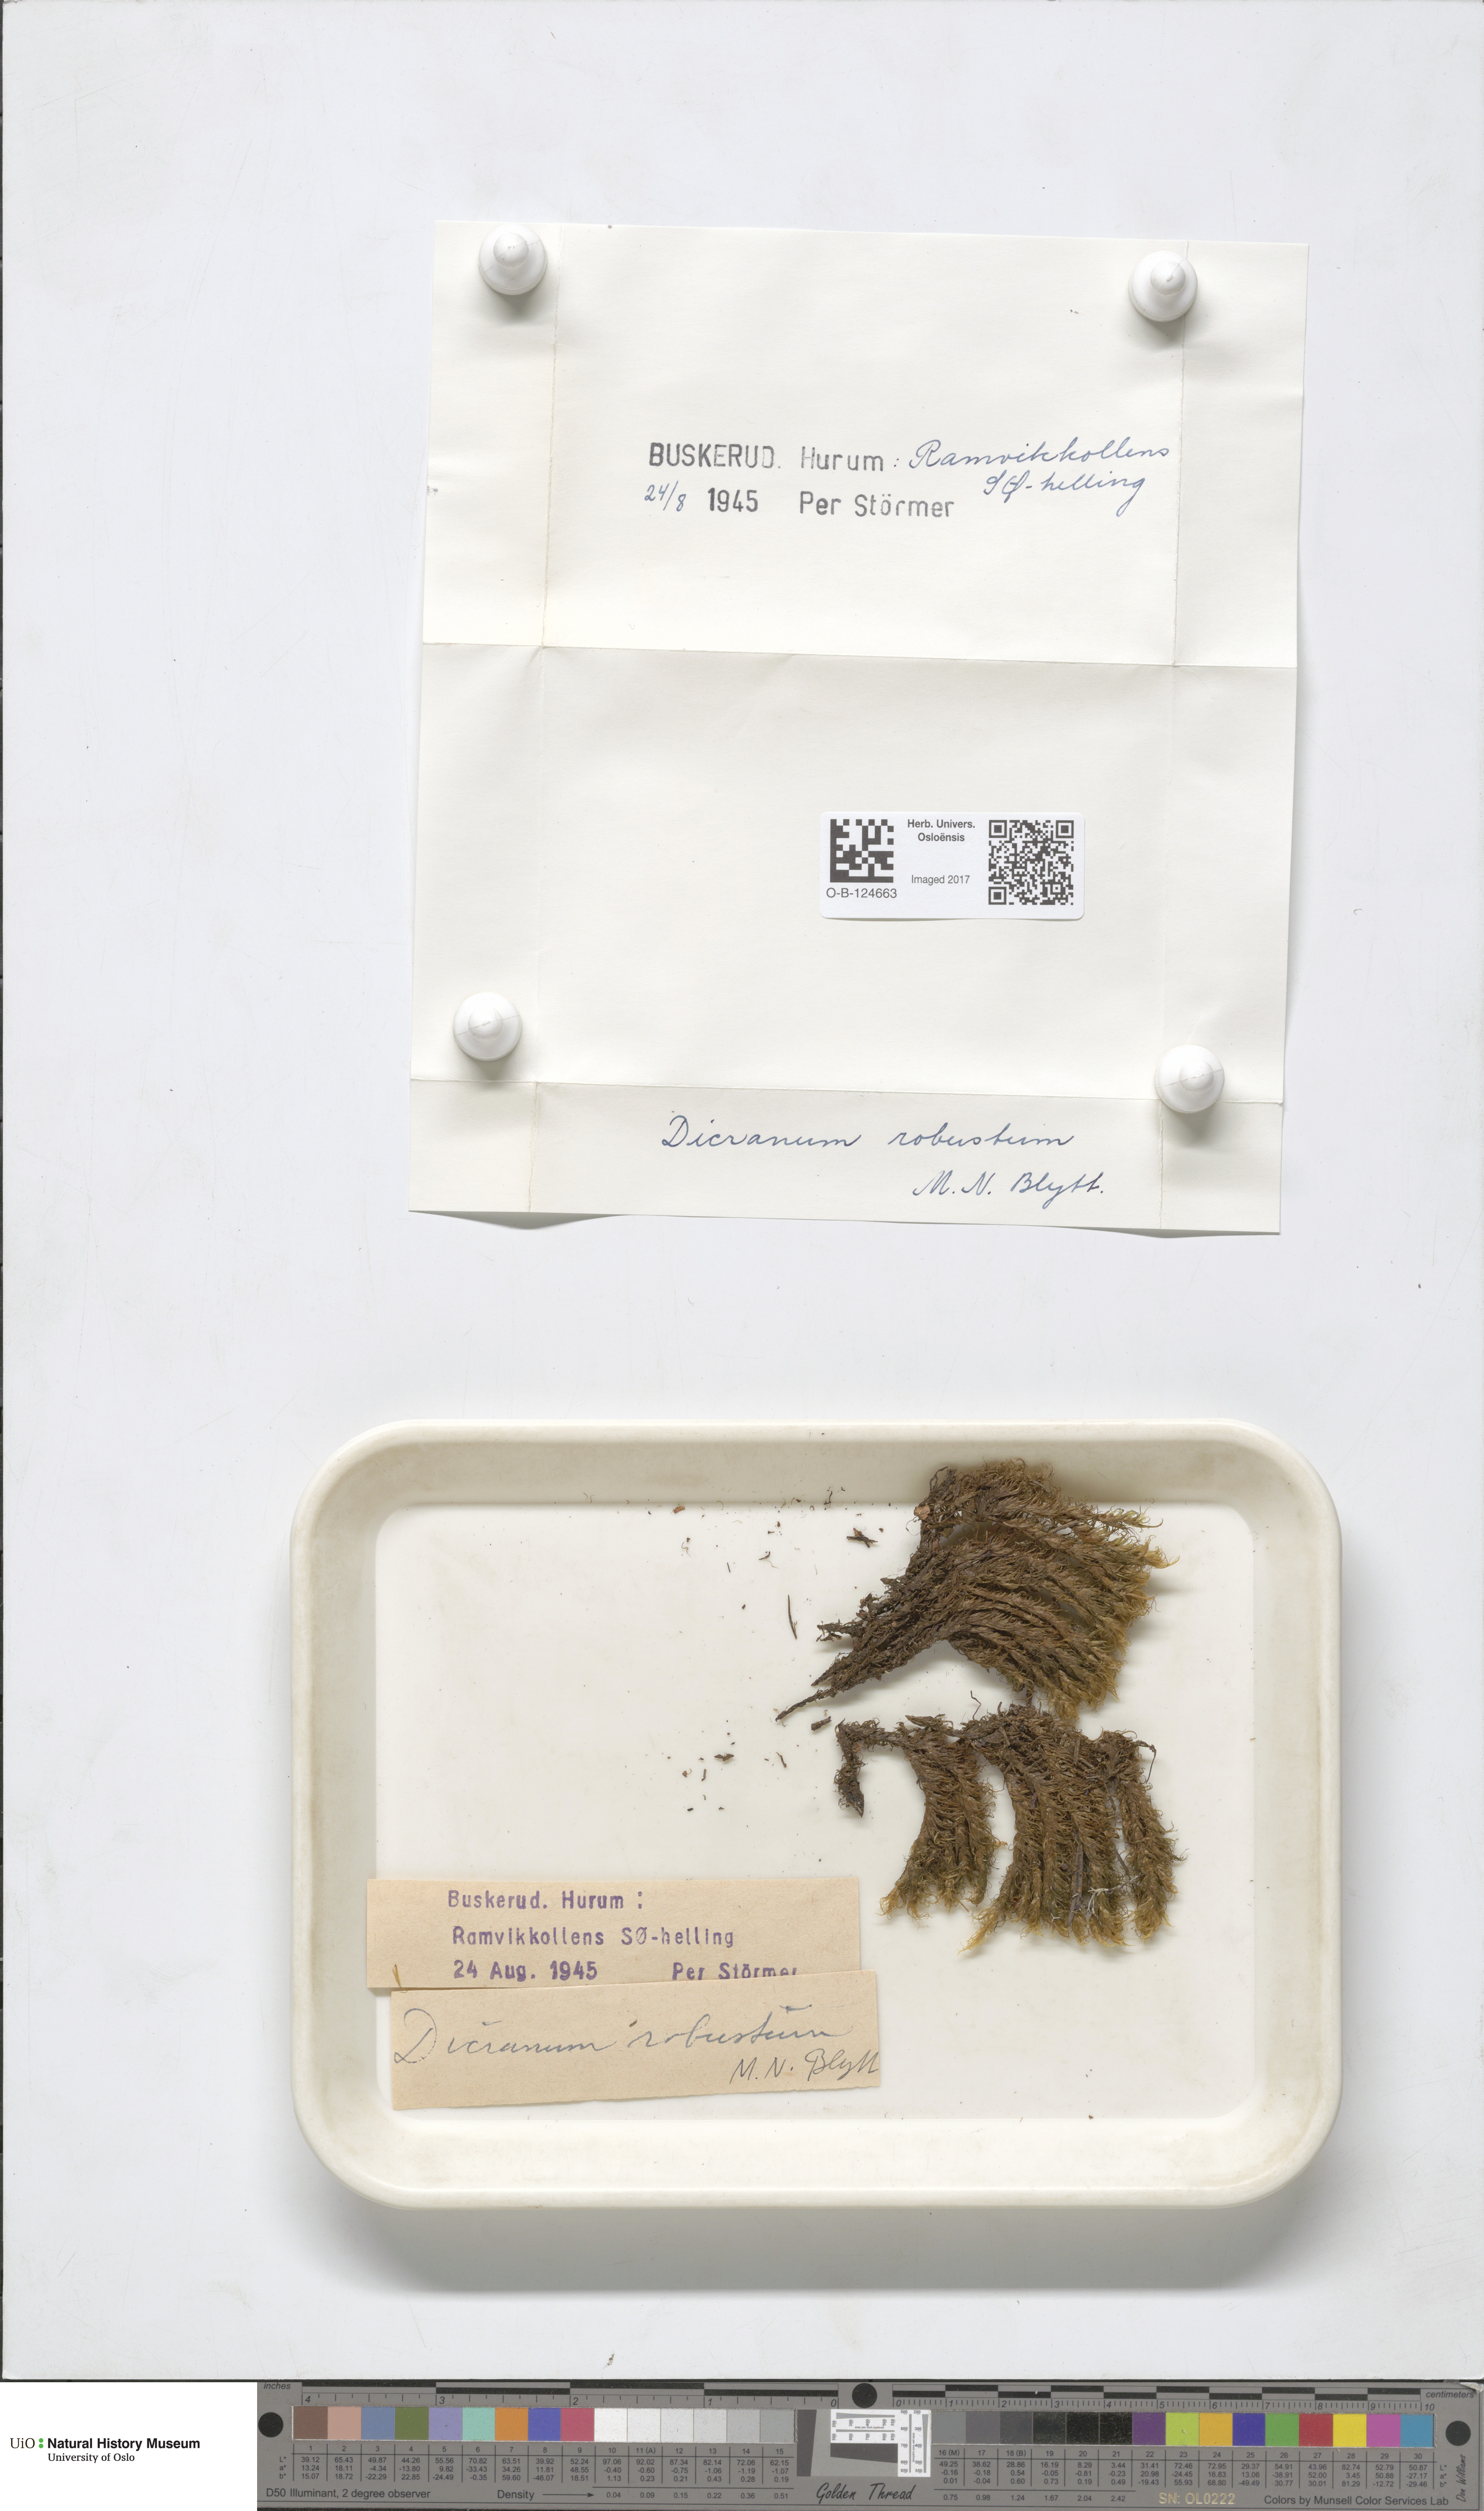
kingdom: Plantae
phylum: Bryophyta
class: Bryopsida
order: Dicranales
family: Dicranaceae
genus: Dicranum
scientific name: Dicranum drummondii
